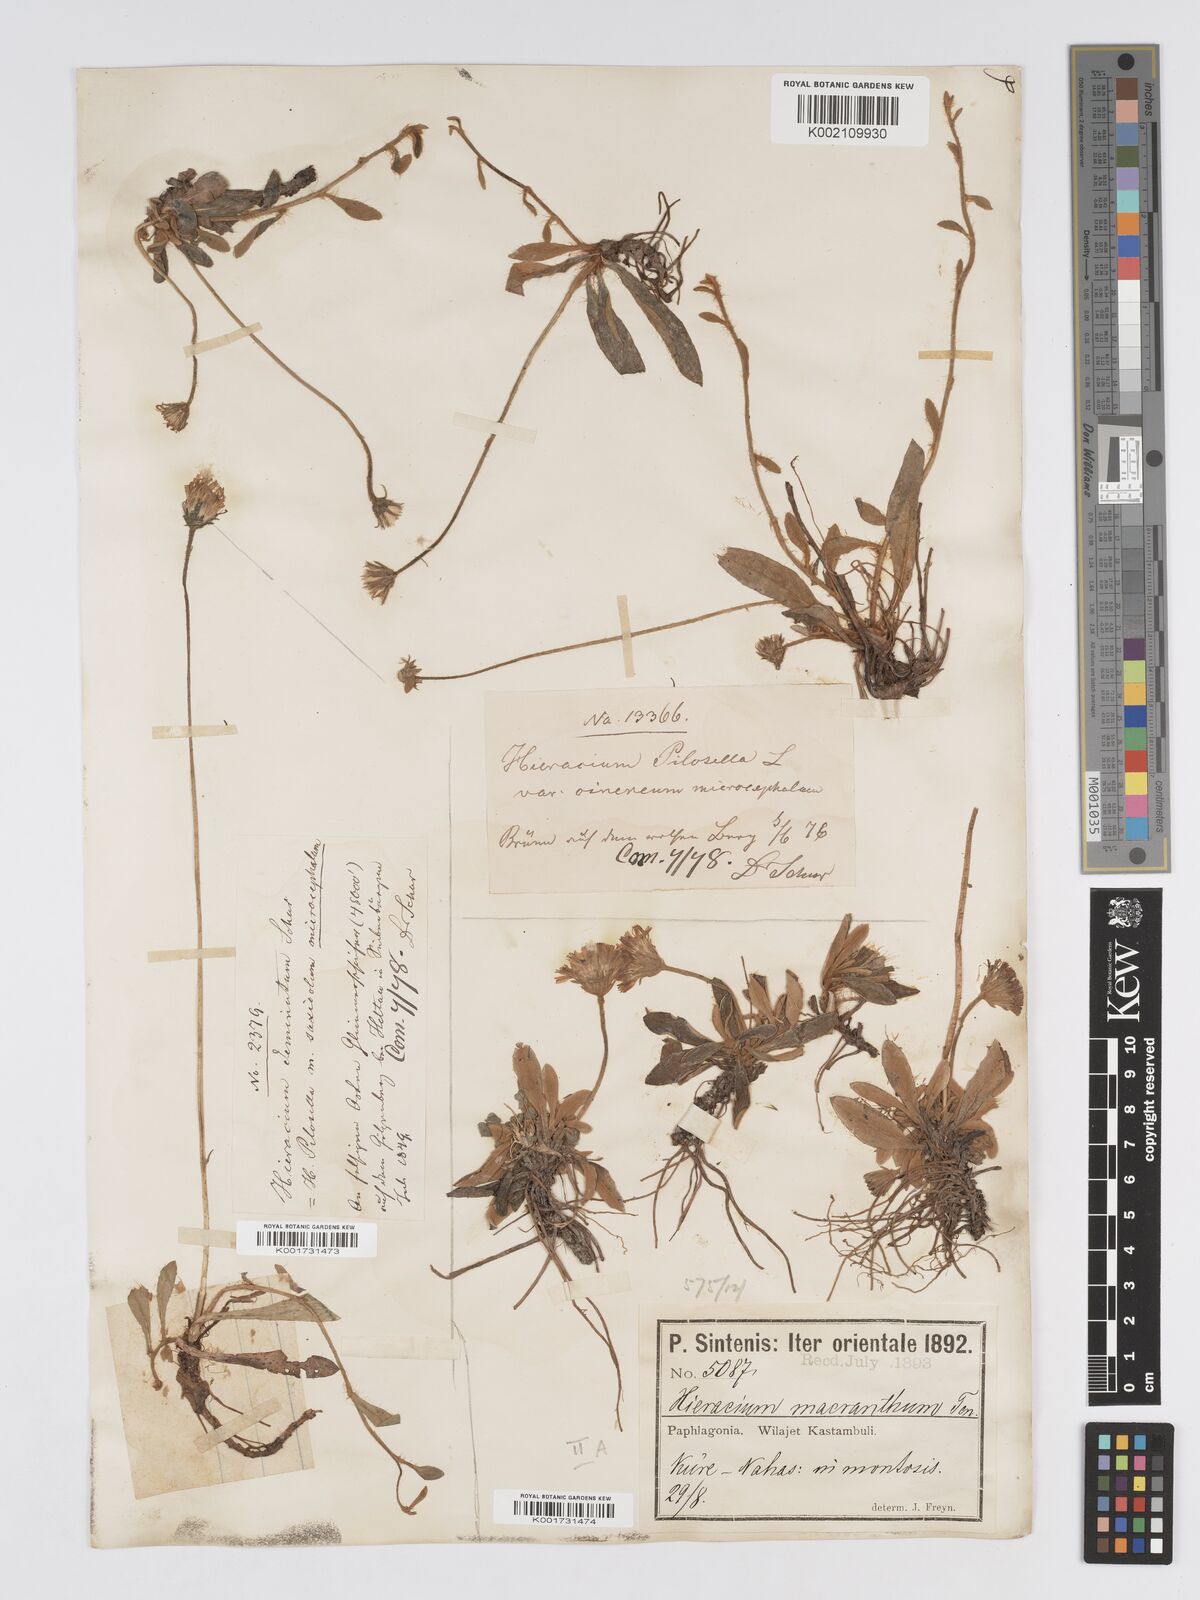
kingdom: Plantae
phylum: Tracheophyta
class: Magnoliopsida
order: Asterales
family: Asteraceae
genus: Pilosella
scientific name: Pilosella hoppeana
